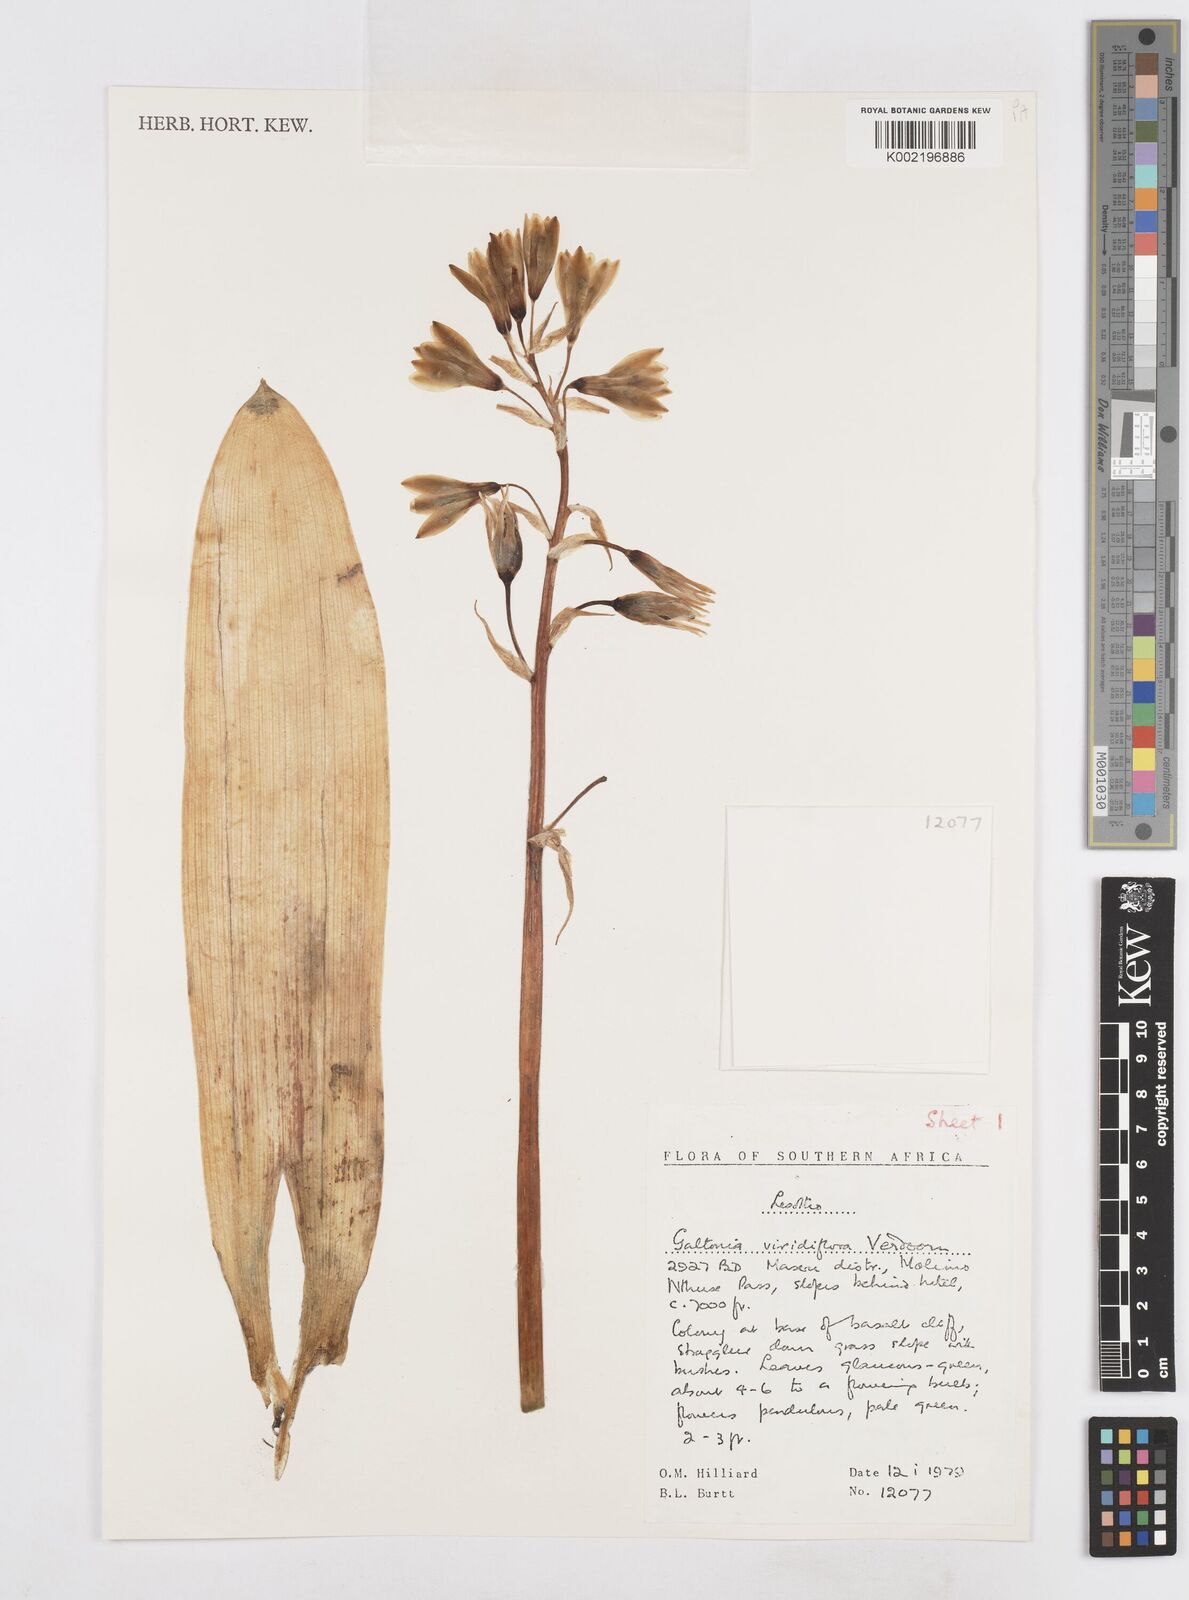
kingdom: Plantae
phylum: Tracheophyta
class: Liliopsida
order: Asparagales
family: Asparagaceae
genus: Ornithogalum
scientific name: Ornithogalum viridiflorum
